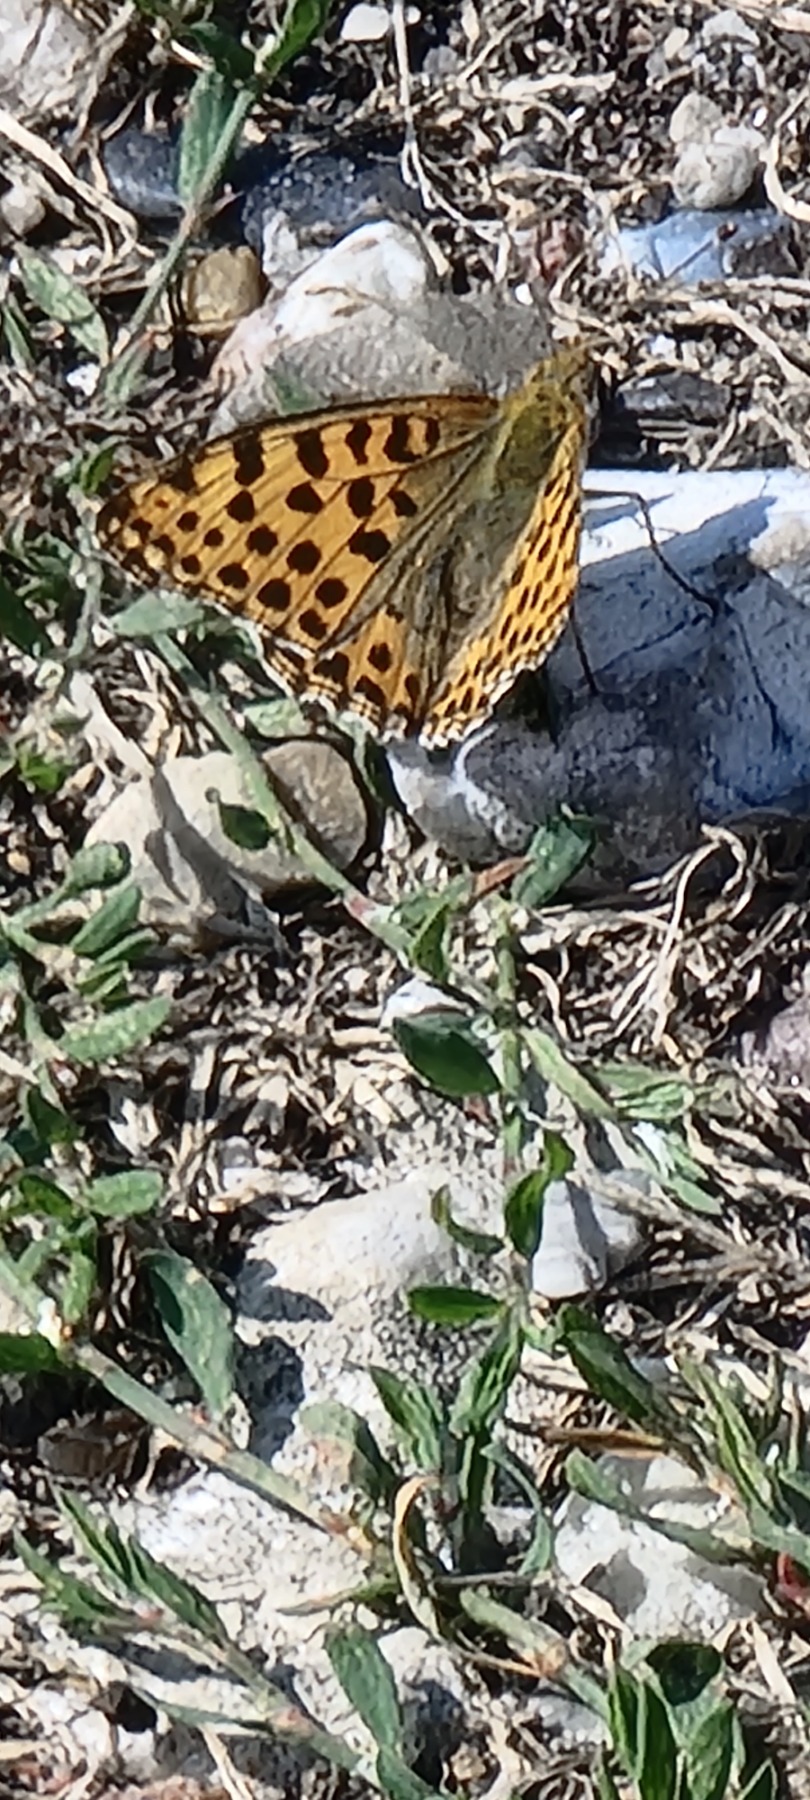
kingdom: Animalia
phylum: Arthropoda
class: Insecta
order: Lepidoptera
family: Nymphalidae
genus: Issoria
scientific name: Issoria lathonia
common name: Storplettet perlemorsommerfugl
